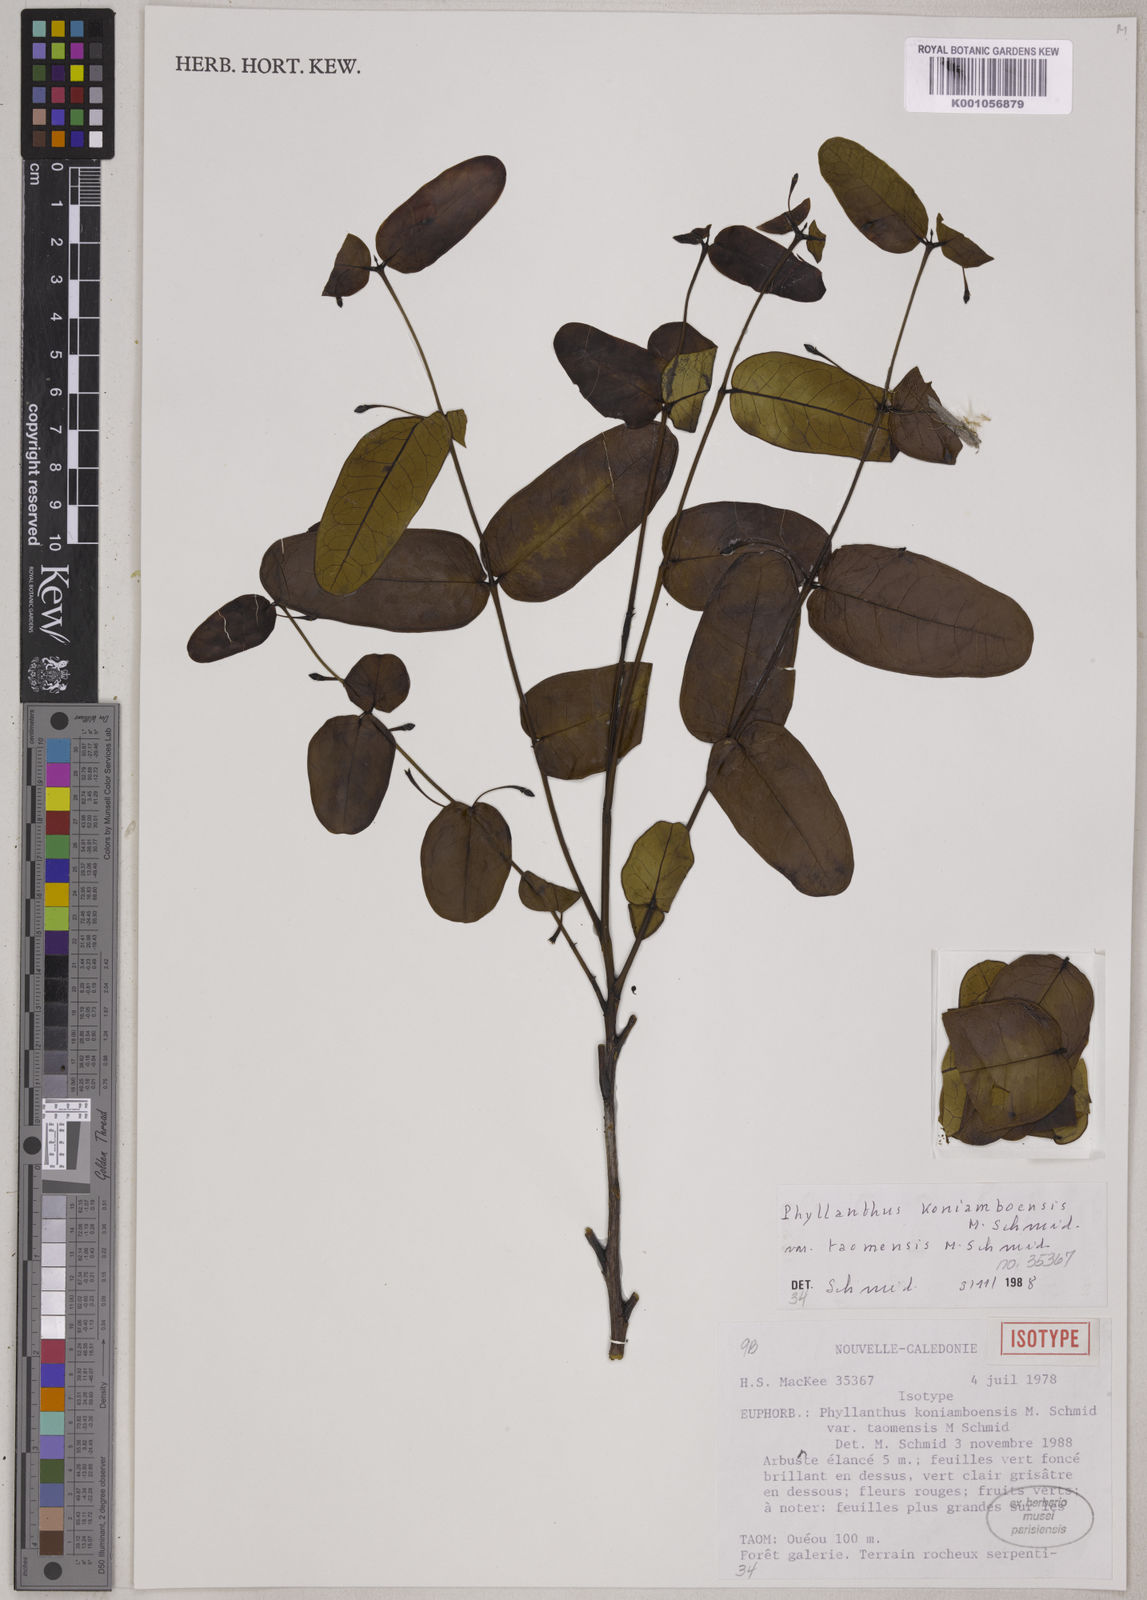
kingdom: Plantae
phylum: Tracheophyta
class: Magnoliopsida
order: Malpighiales
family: Phyllanthaceae
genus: Phyllanthus
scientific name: Phyllanthus koniamboensis
